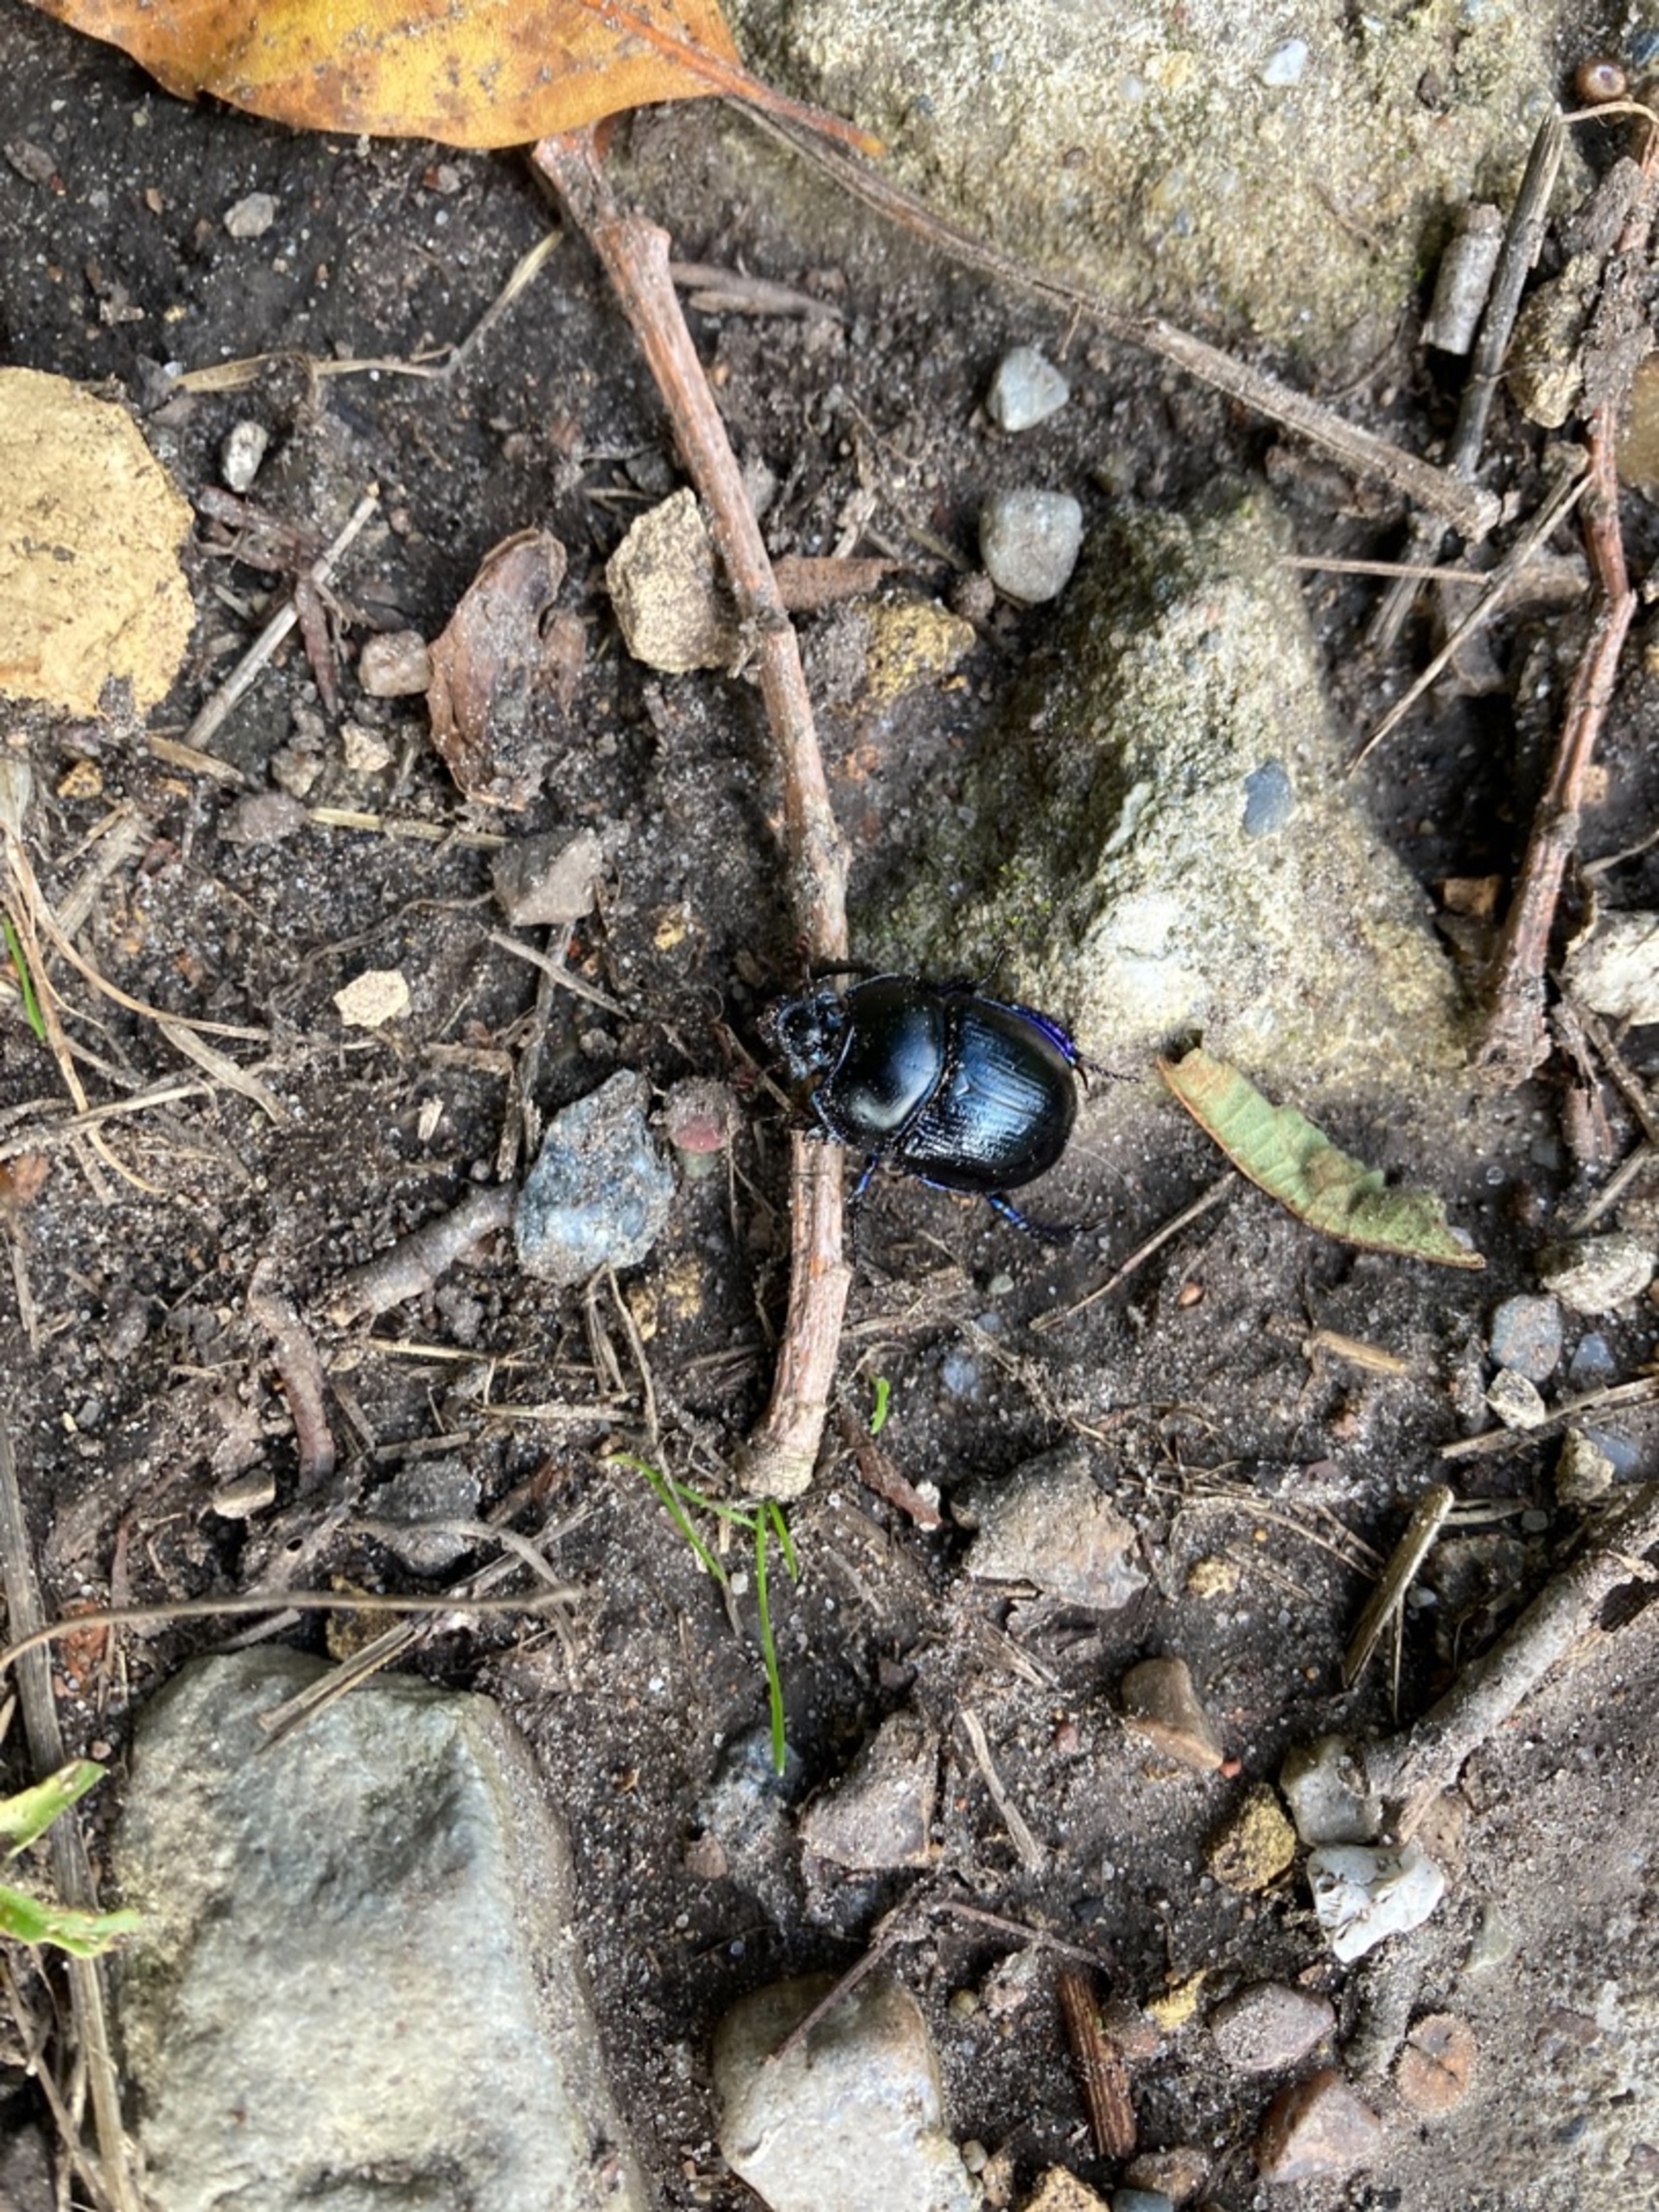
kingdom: Animalia
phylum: Arthropoda
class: Insecta
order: Coleoptera
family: Geotrupidae
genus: Anoplotrupes
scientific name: Anoplotrupes stercorosus
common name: Skovskarnbasse
